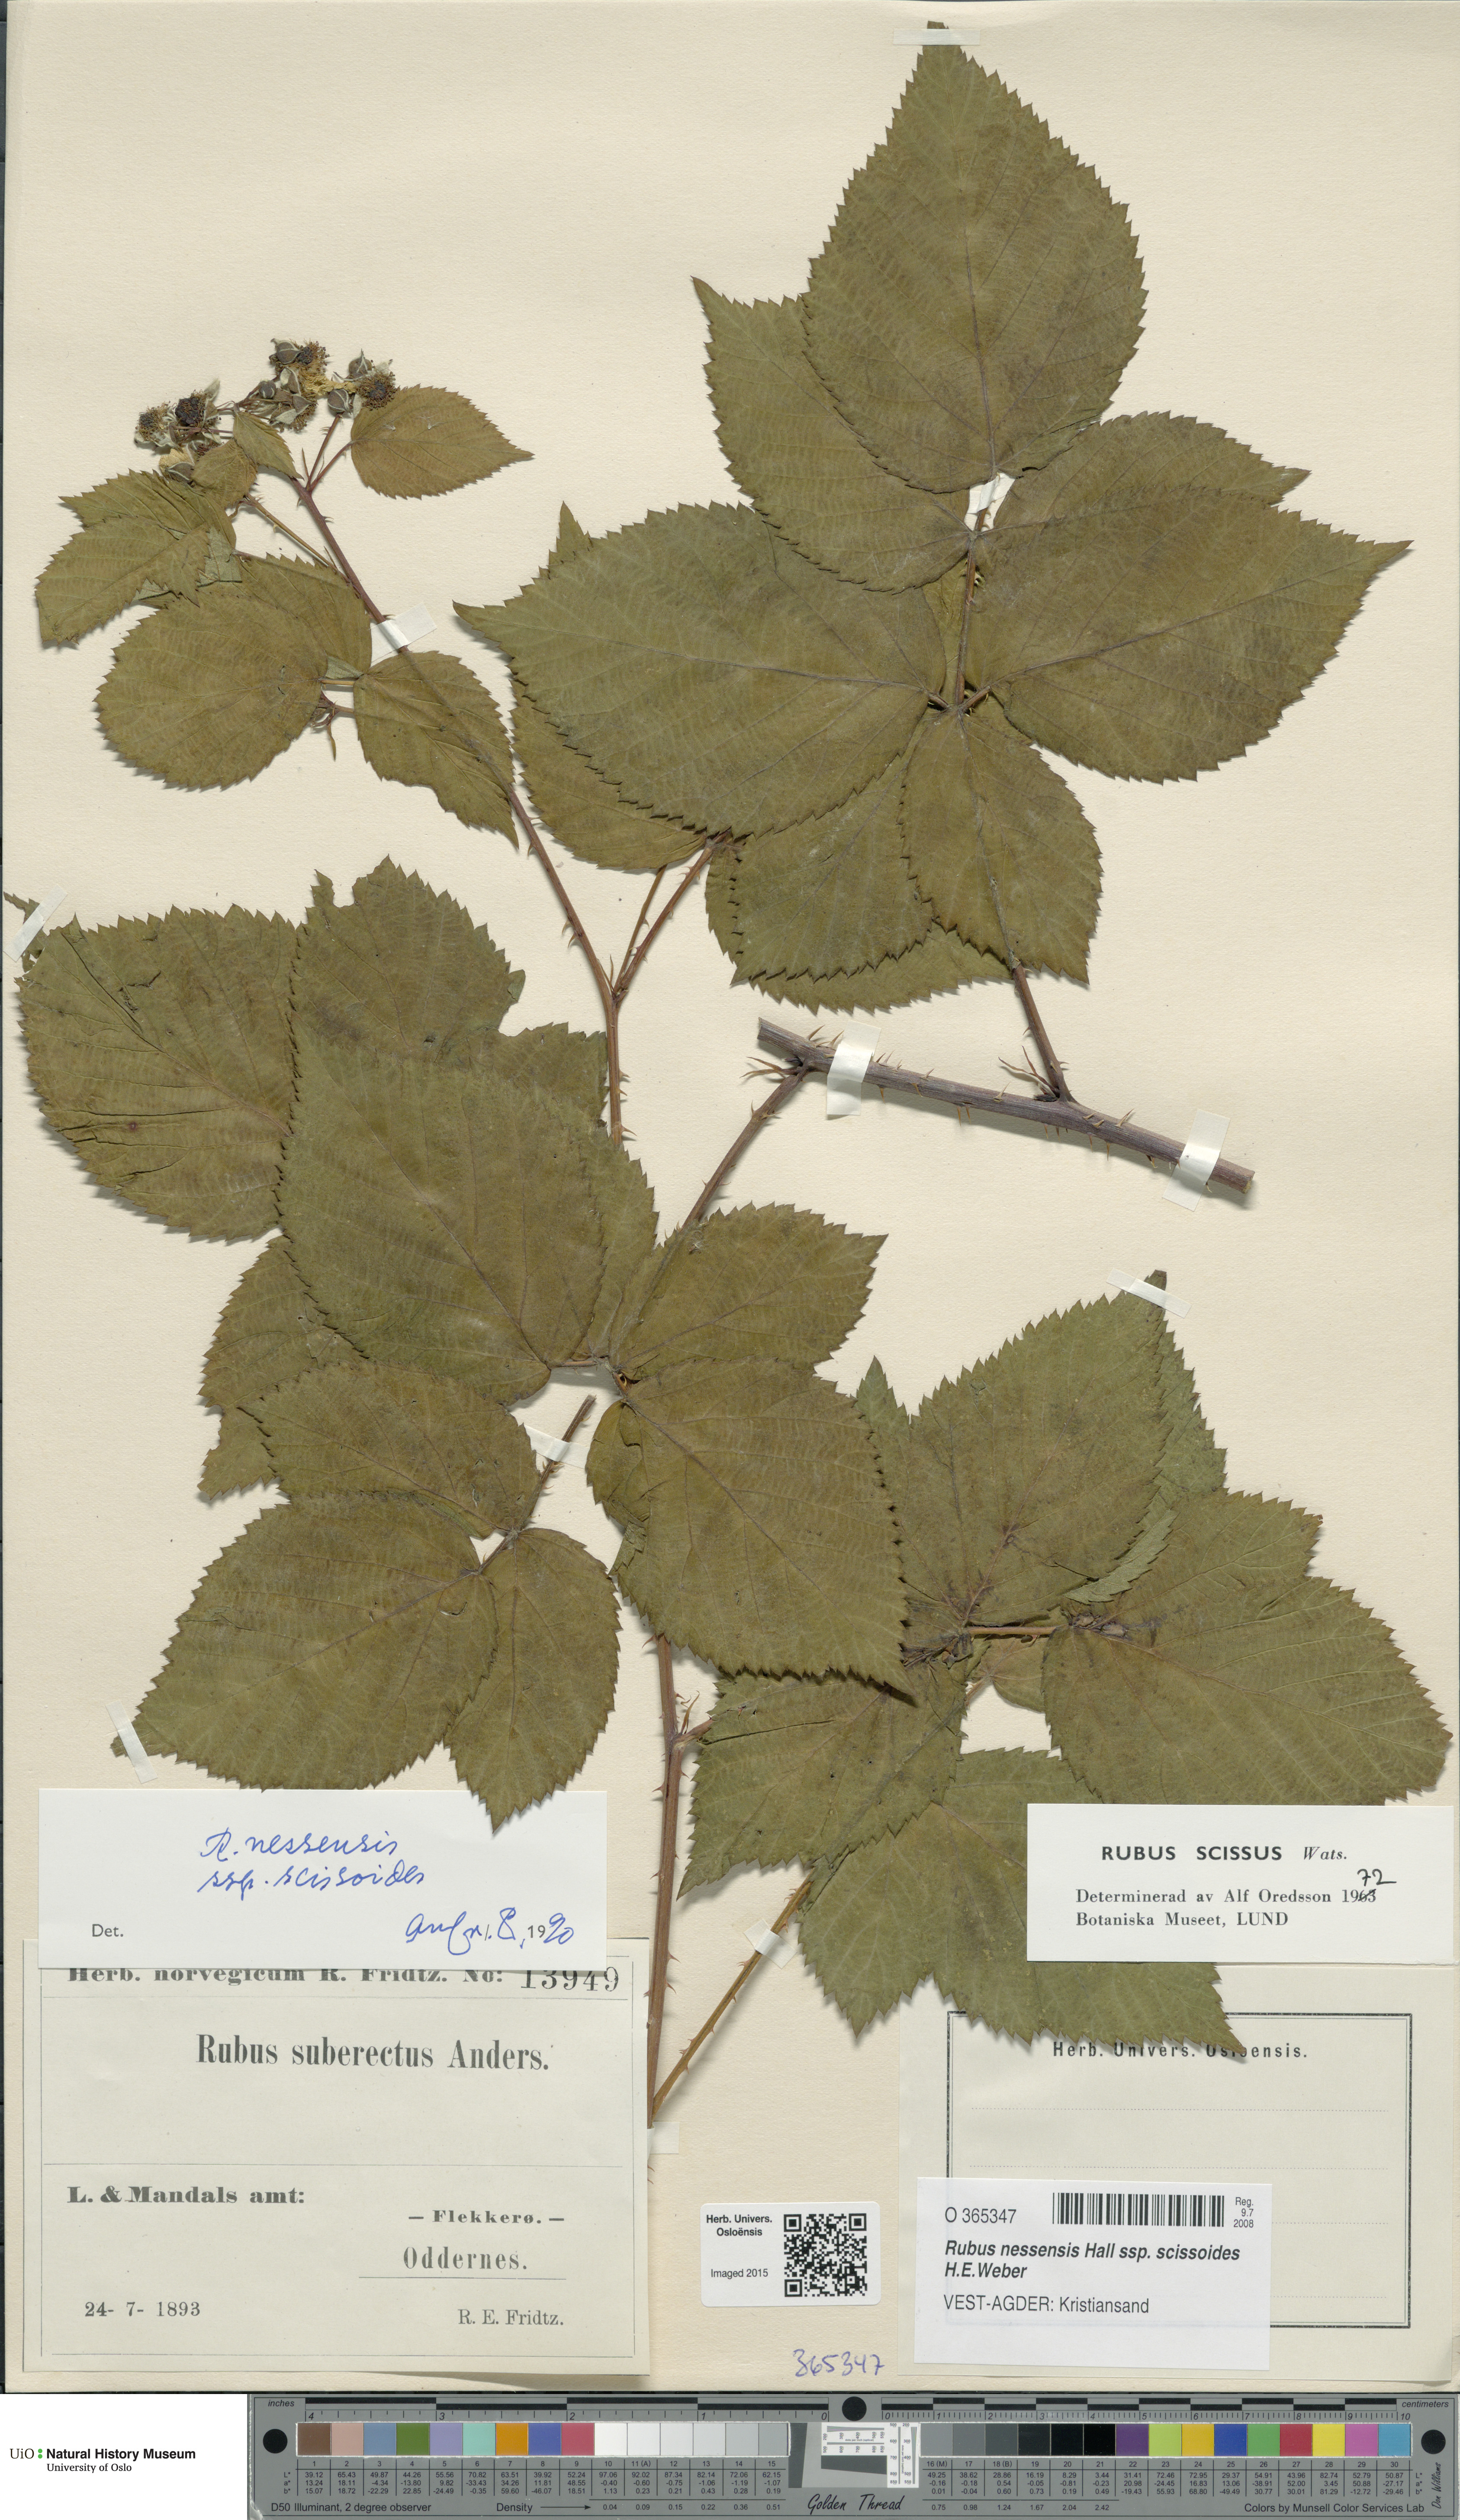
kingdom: Plantae
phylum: Tracheophyta
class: Magnoliopsida
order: Rosales
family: Rosaceae
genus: Rubus
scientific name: Rubus scissus
